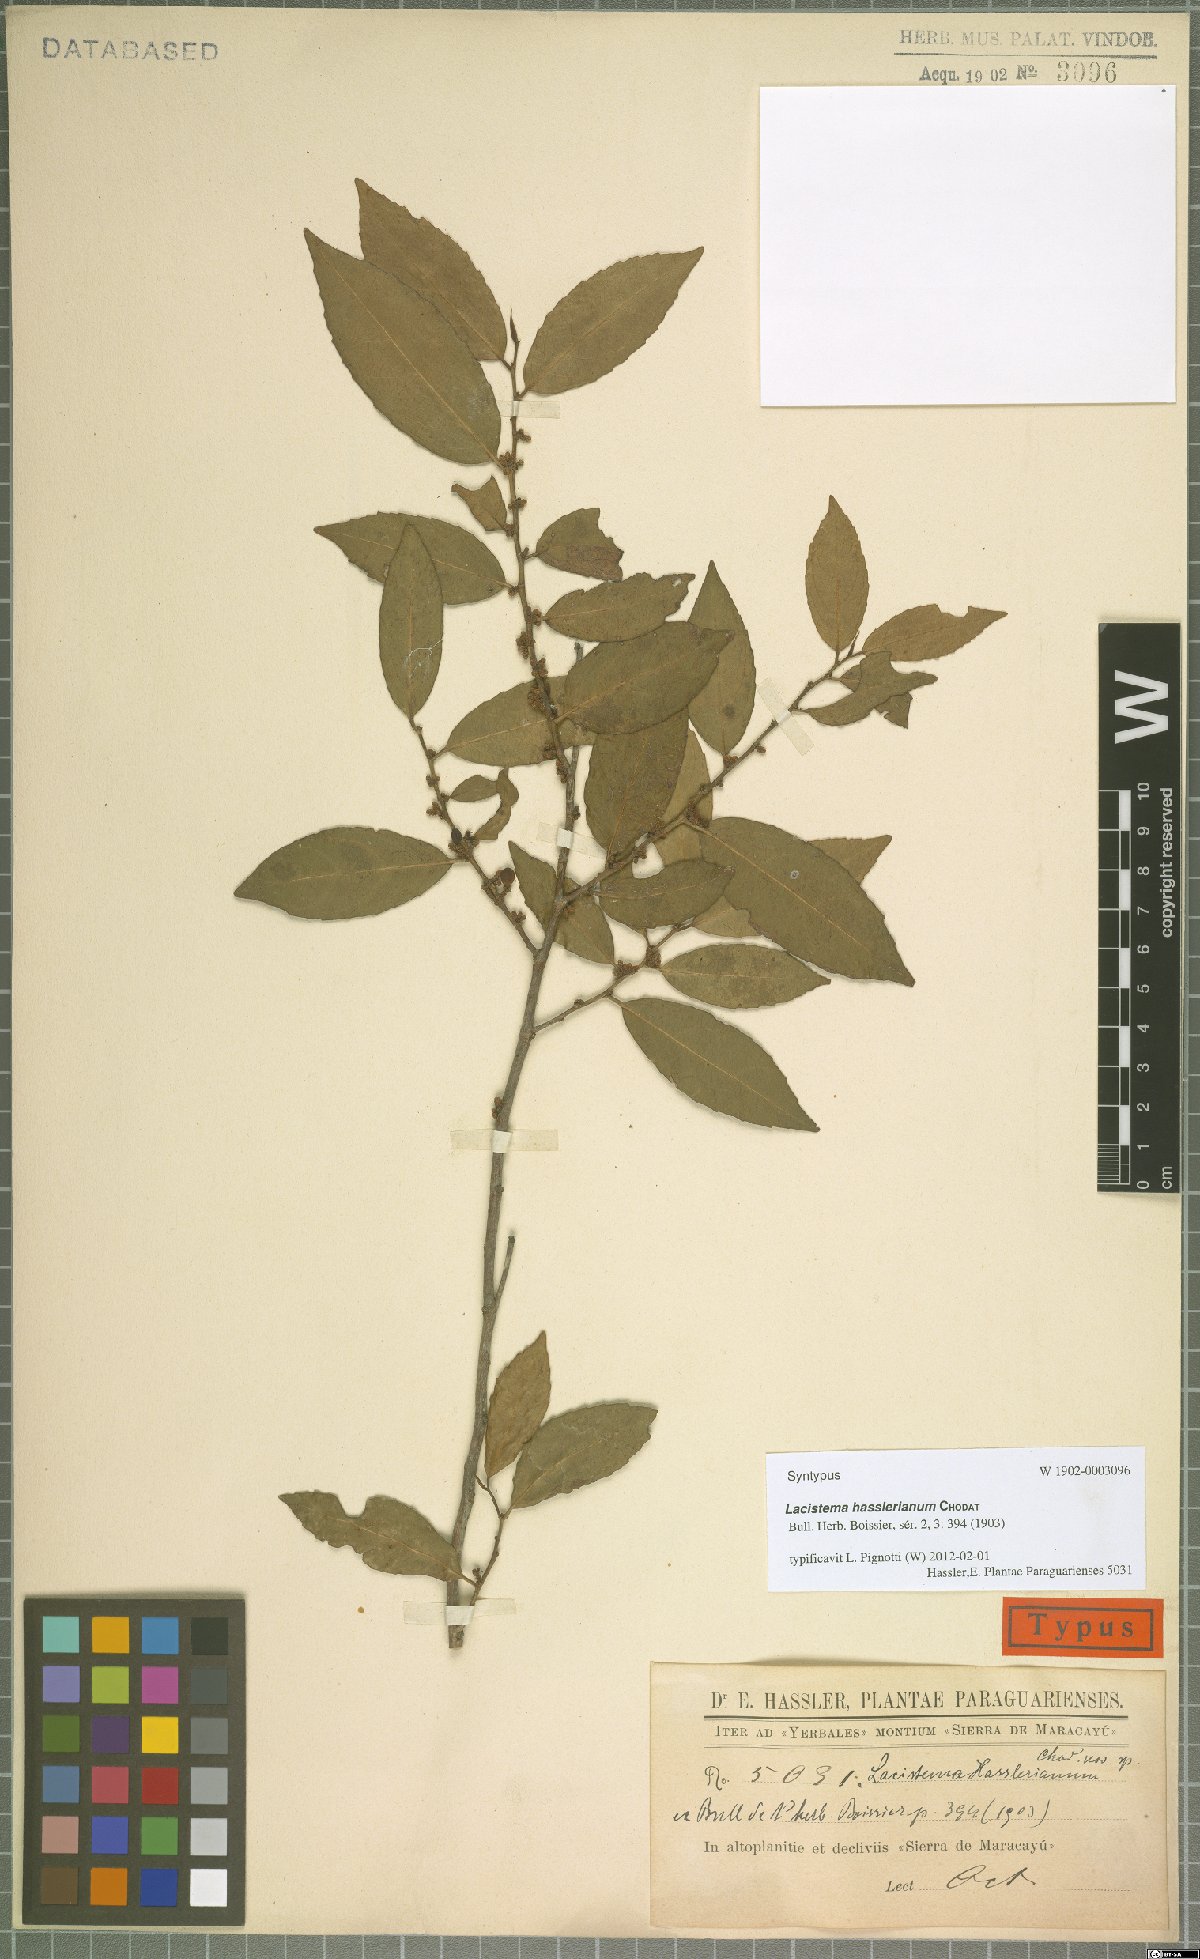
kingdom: Plantae
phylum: Tracheophyta
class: Magnoliopsida
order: Malpighiales
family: Lacistemataceae
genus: Lacistema
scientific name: Lacistema hasslerianum
